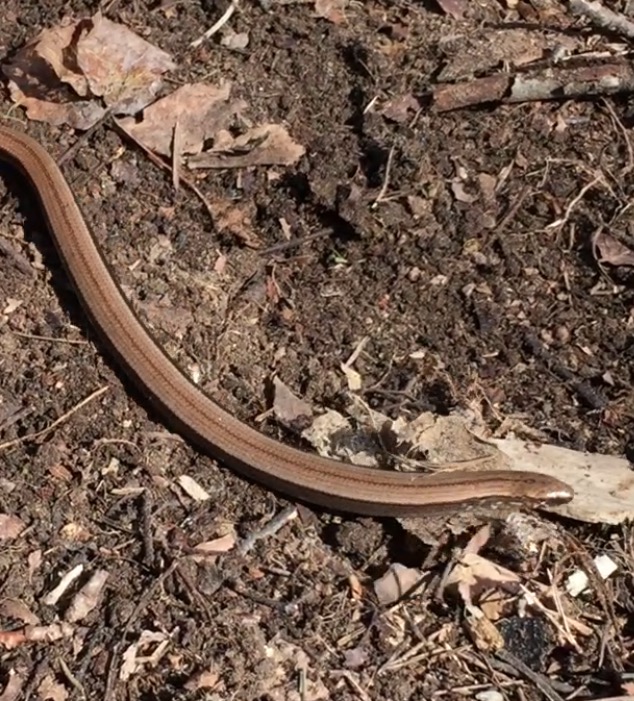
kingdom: Animalia
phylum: Chordata
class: Squamata
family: Anguidae
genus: Anguis
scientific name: Anguis colchica
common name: Slow worm
